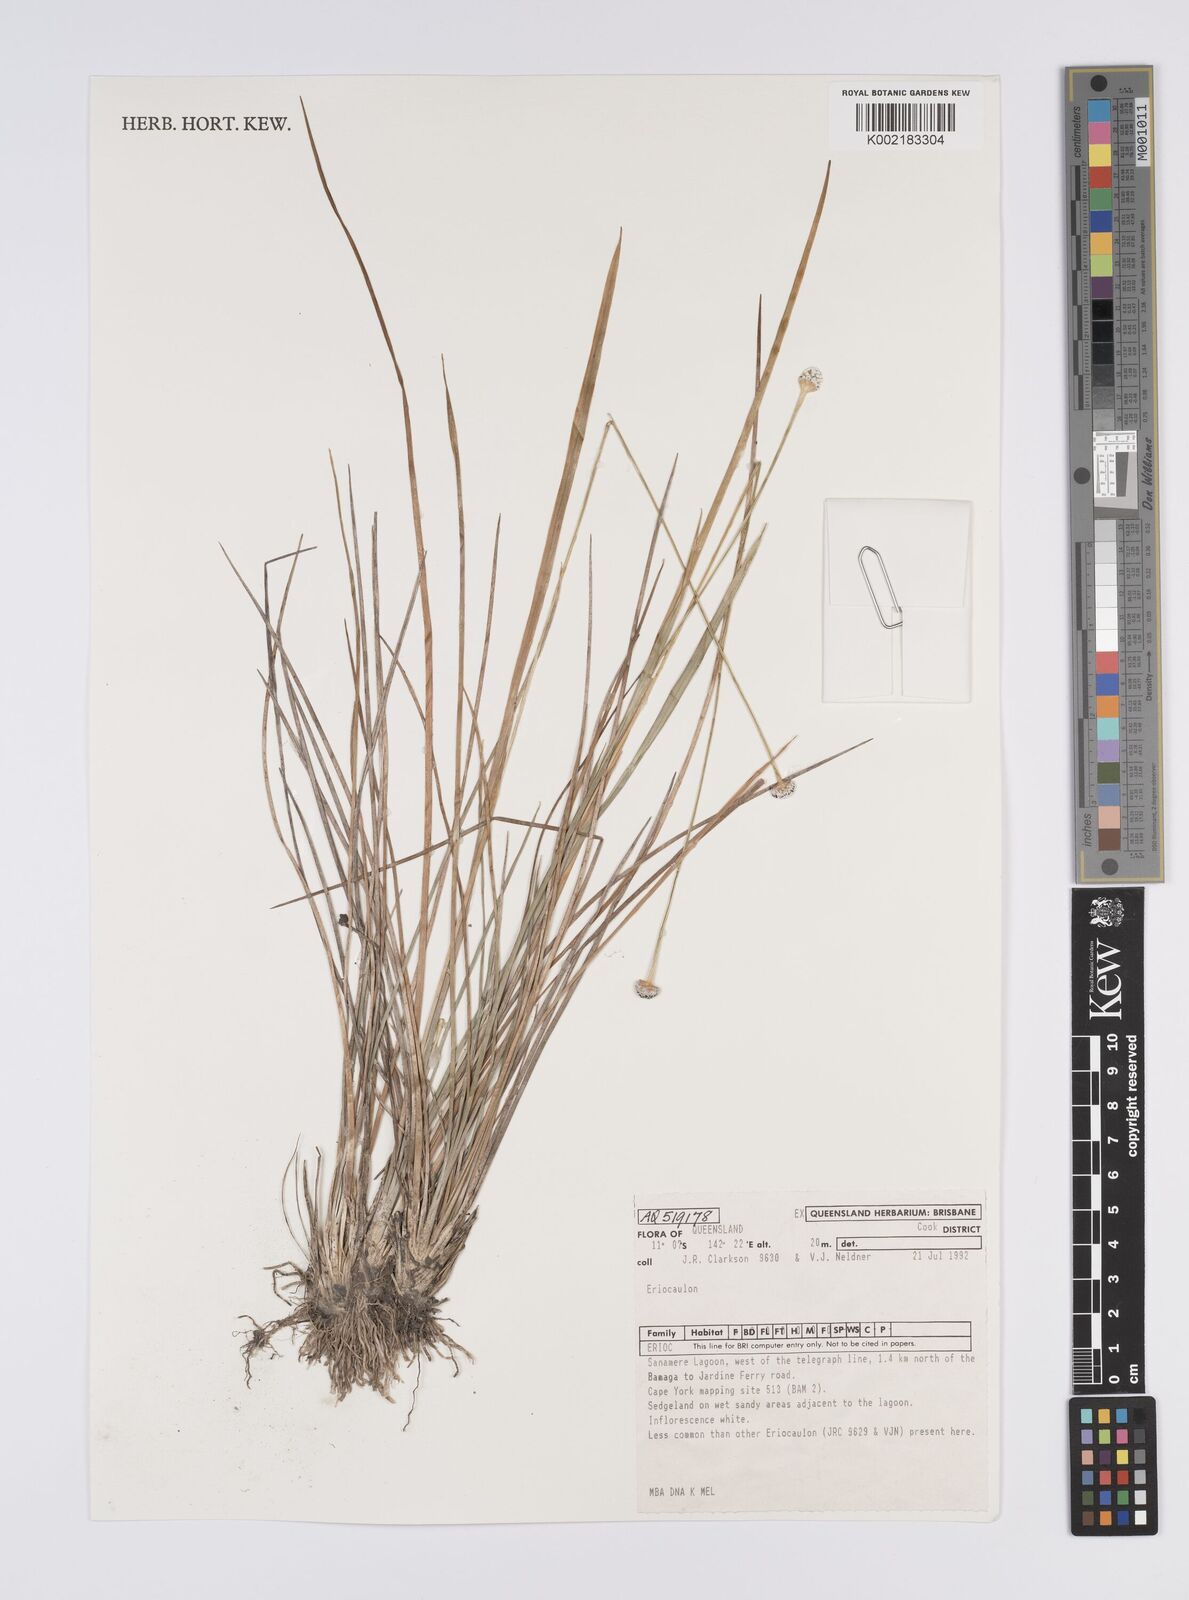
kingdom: Plantae
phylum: Tracheophyta
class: Liliopsida
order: Poales
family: Eriocaulaceae
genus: Eriocaulon
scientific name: Eriocaulon
